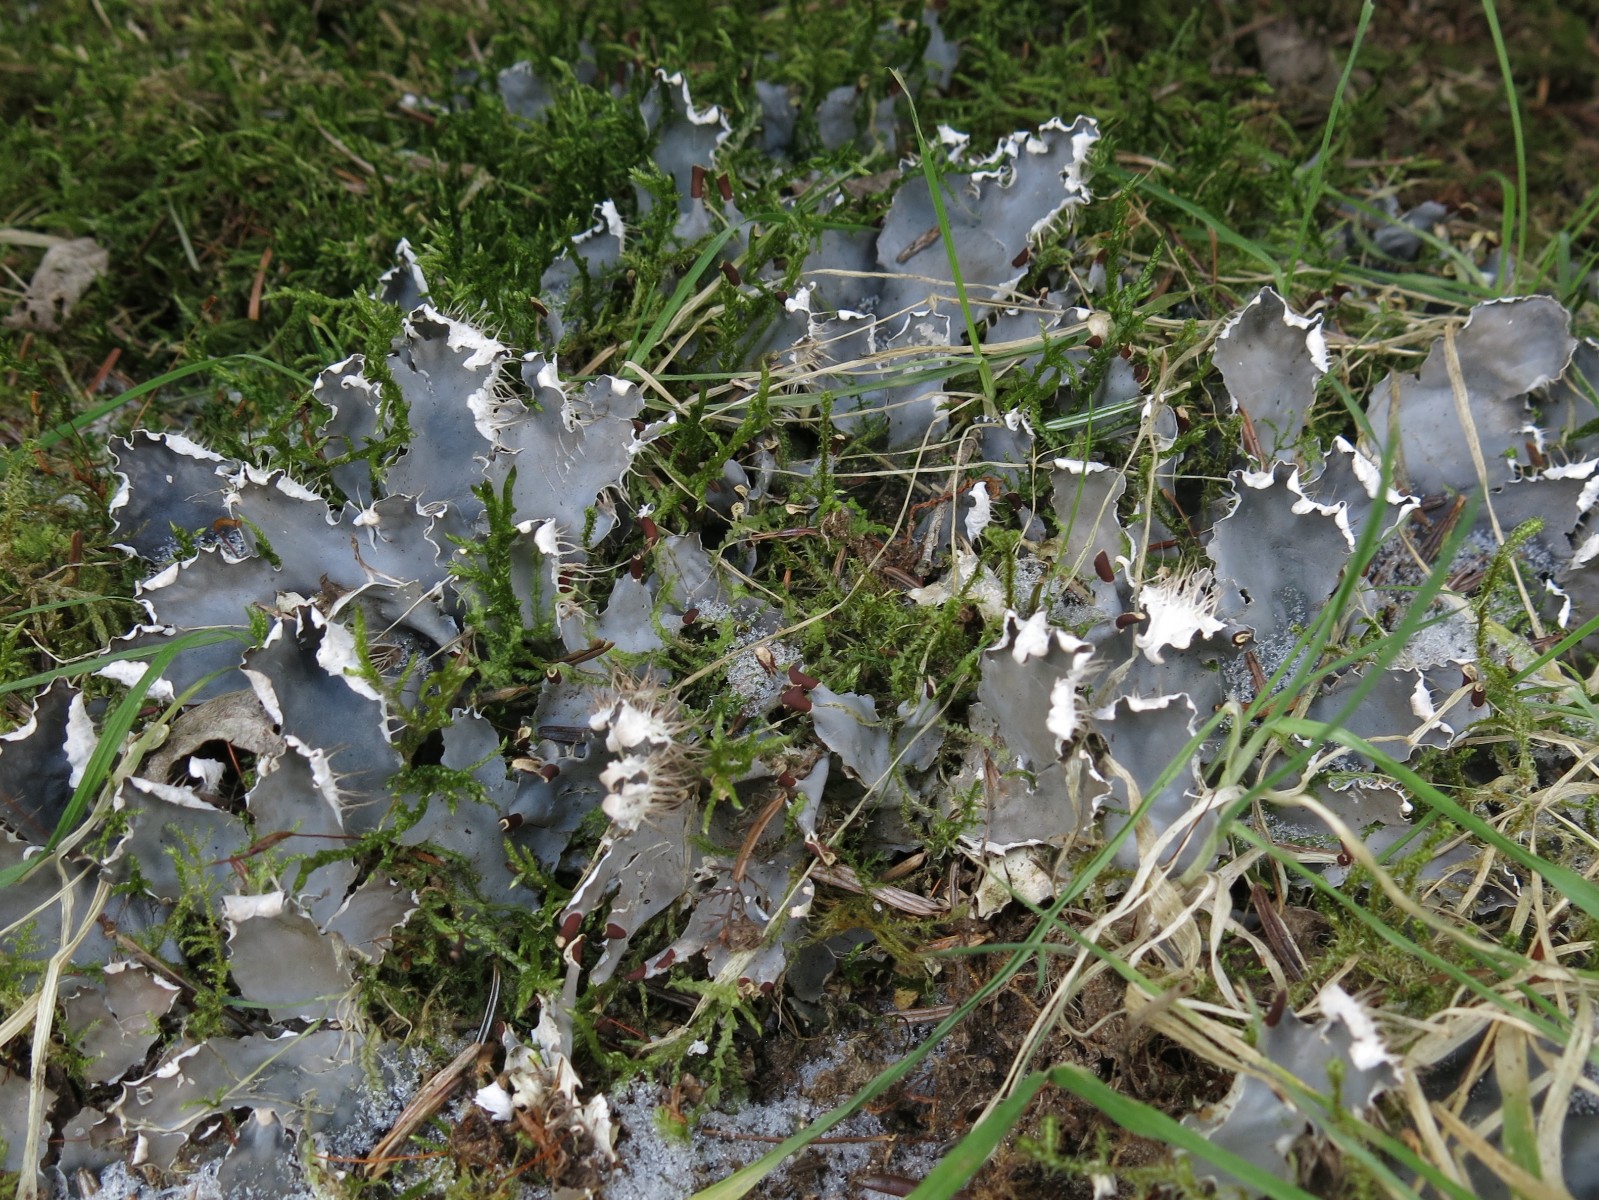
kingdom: Fungi
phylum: Ascomycota
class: Lecanoromycetes
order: Peltigerales
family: Peltigeraceae
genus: Peltigera
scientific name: Peltigera hymenina
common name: hinde-skjoldlav
